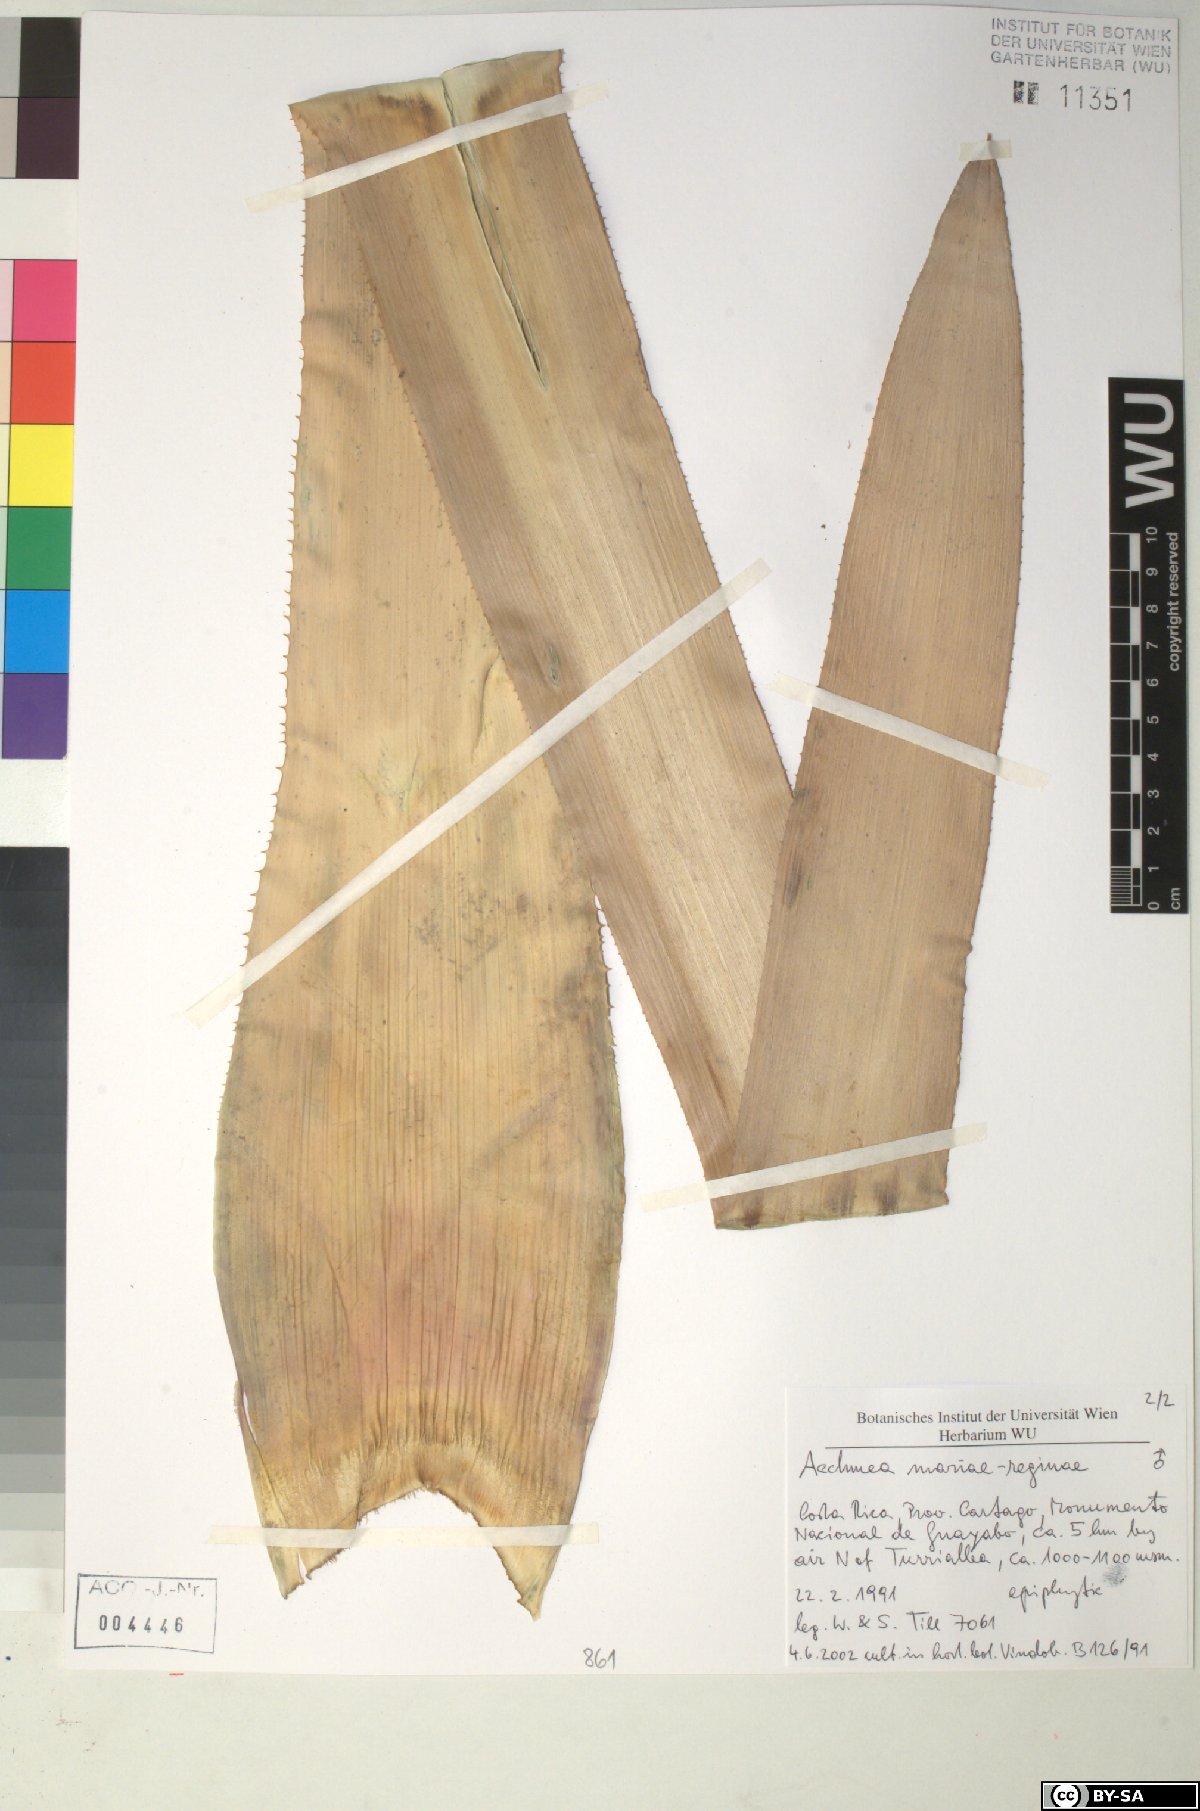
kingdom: Plantae
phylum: Tracheophyta
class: Liliopsida
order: Poales
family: Bromeliaceae
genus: Aechmea
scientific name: Aechmea
